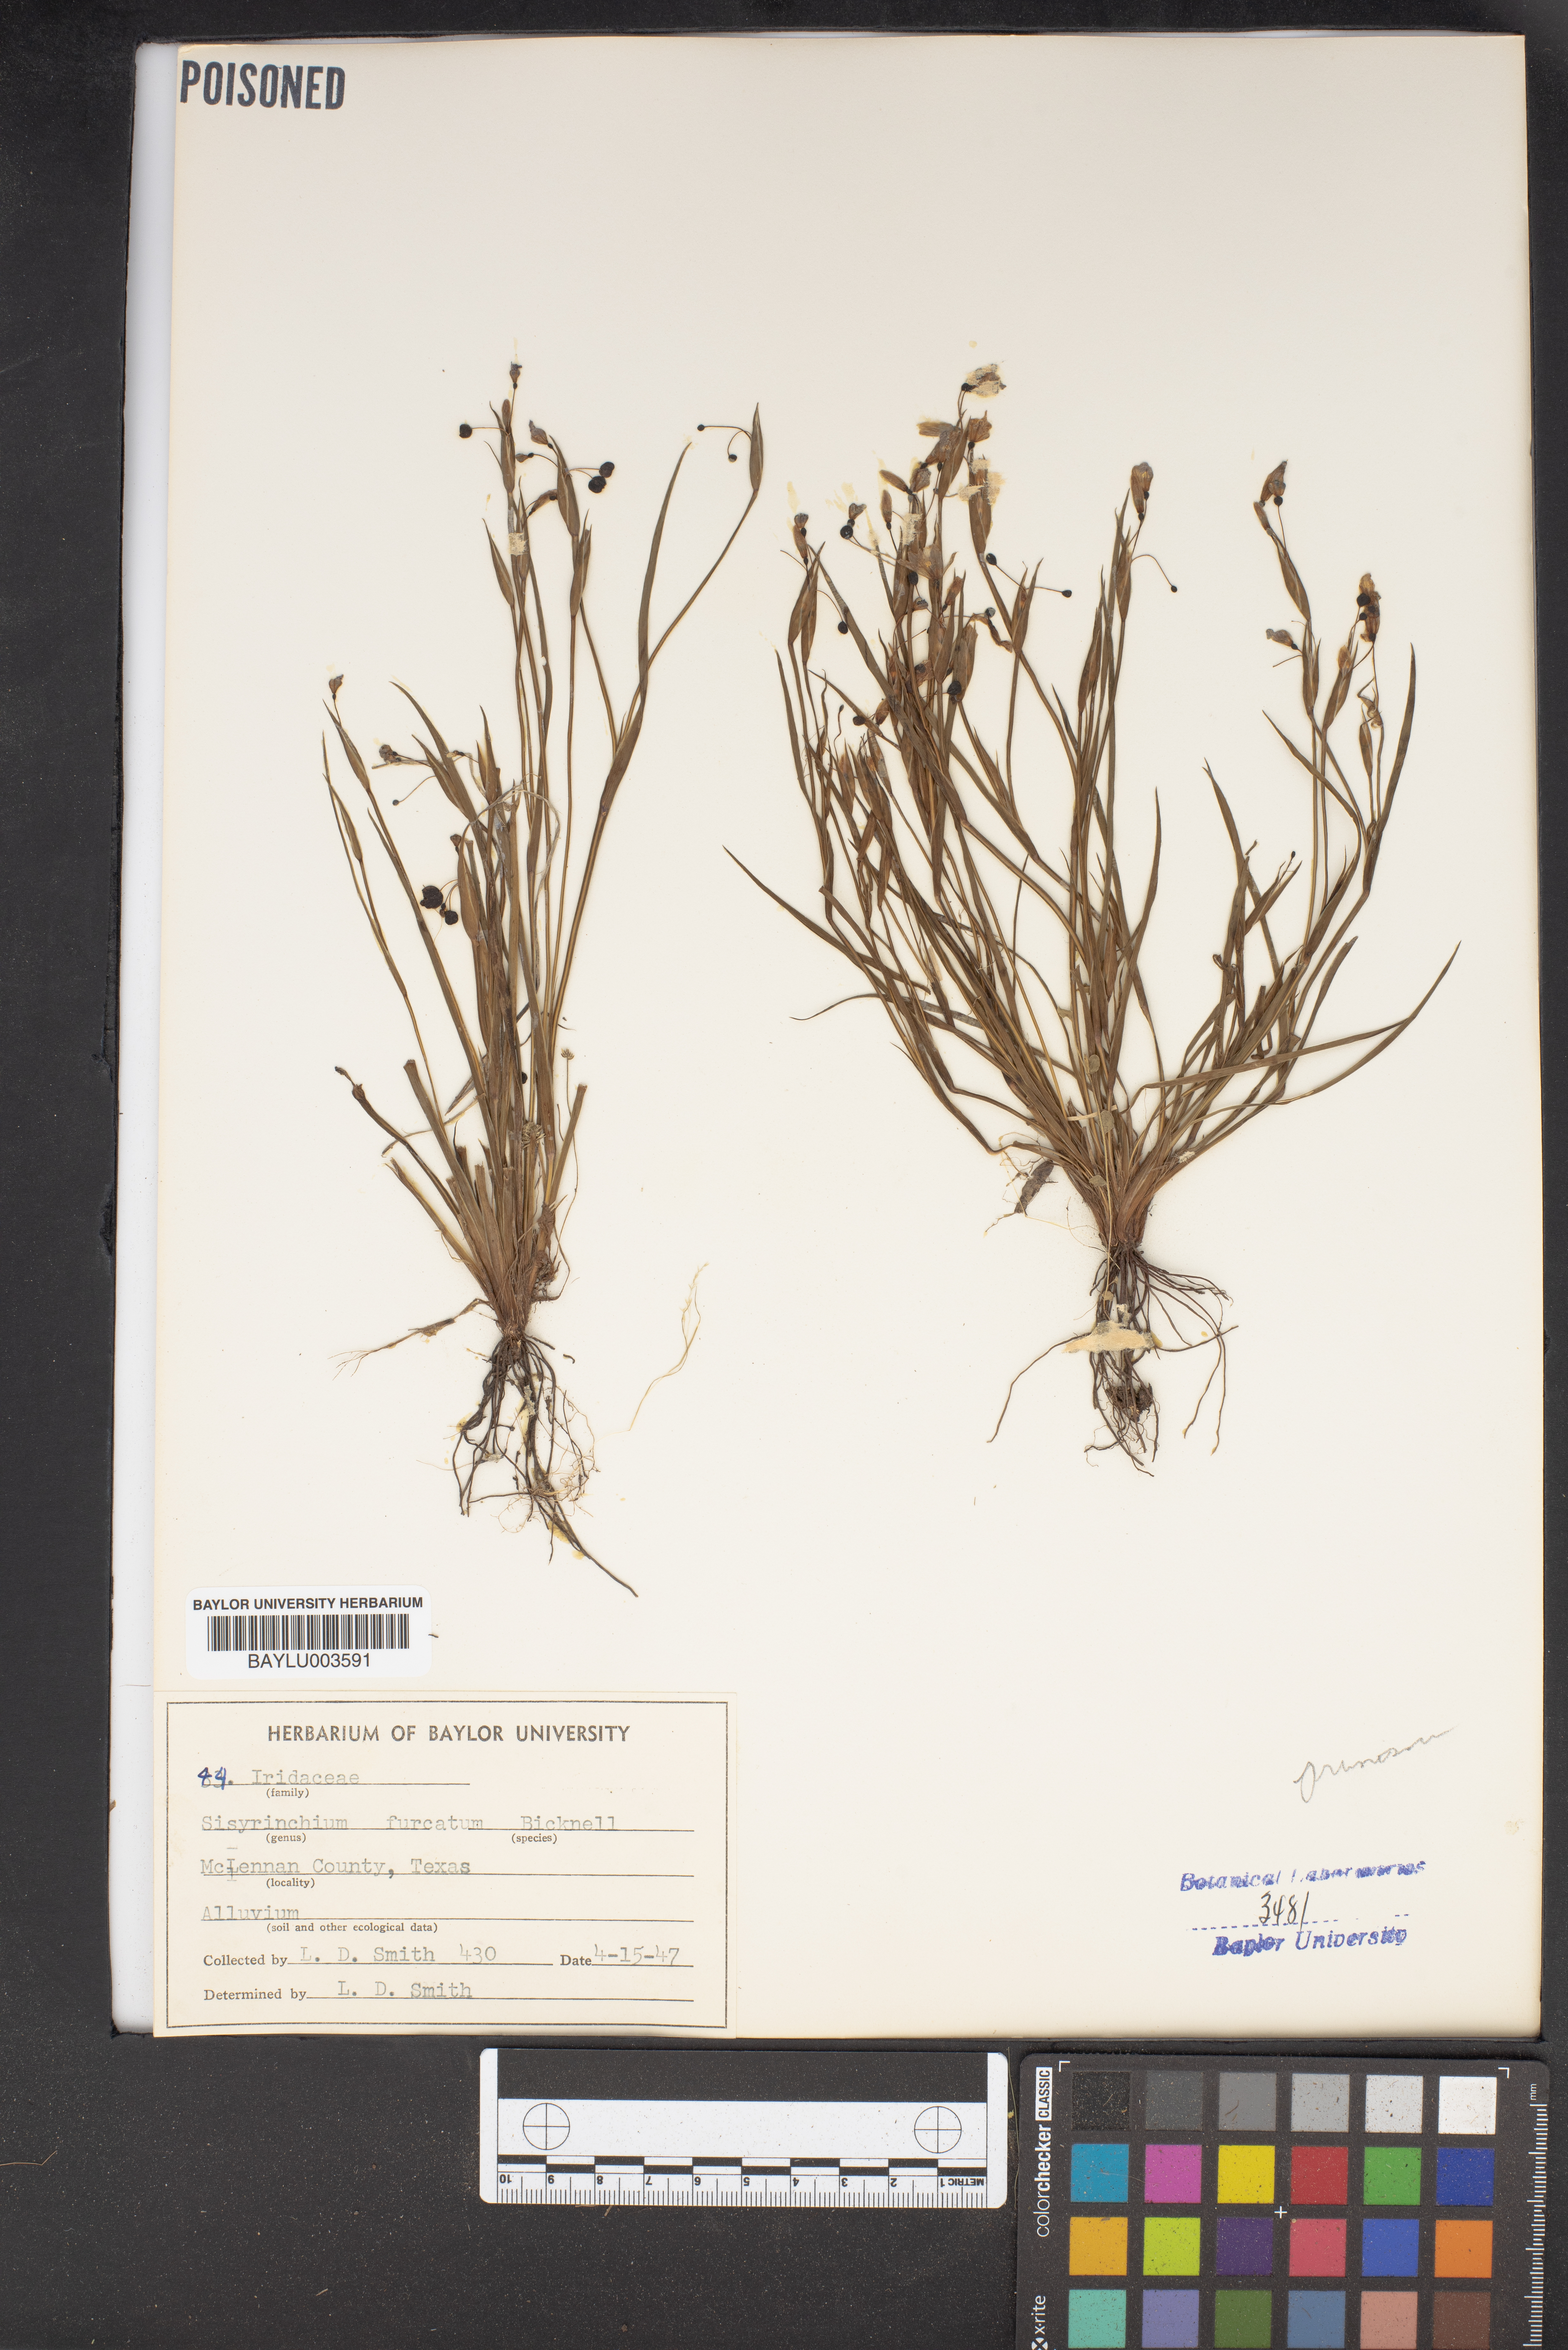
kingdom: Plantae
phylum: Tracheophyta
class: Liliopsida
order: Asparagales
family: Iridaceae
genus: Sisyrinchium
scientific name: Sisyrinchium fuscatum
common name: Coastal plain blue-eyed-grass
